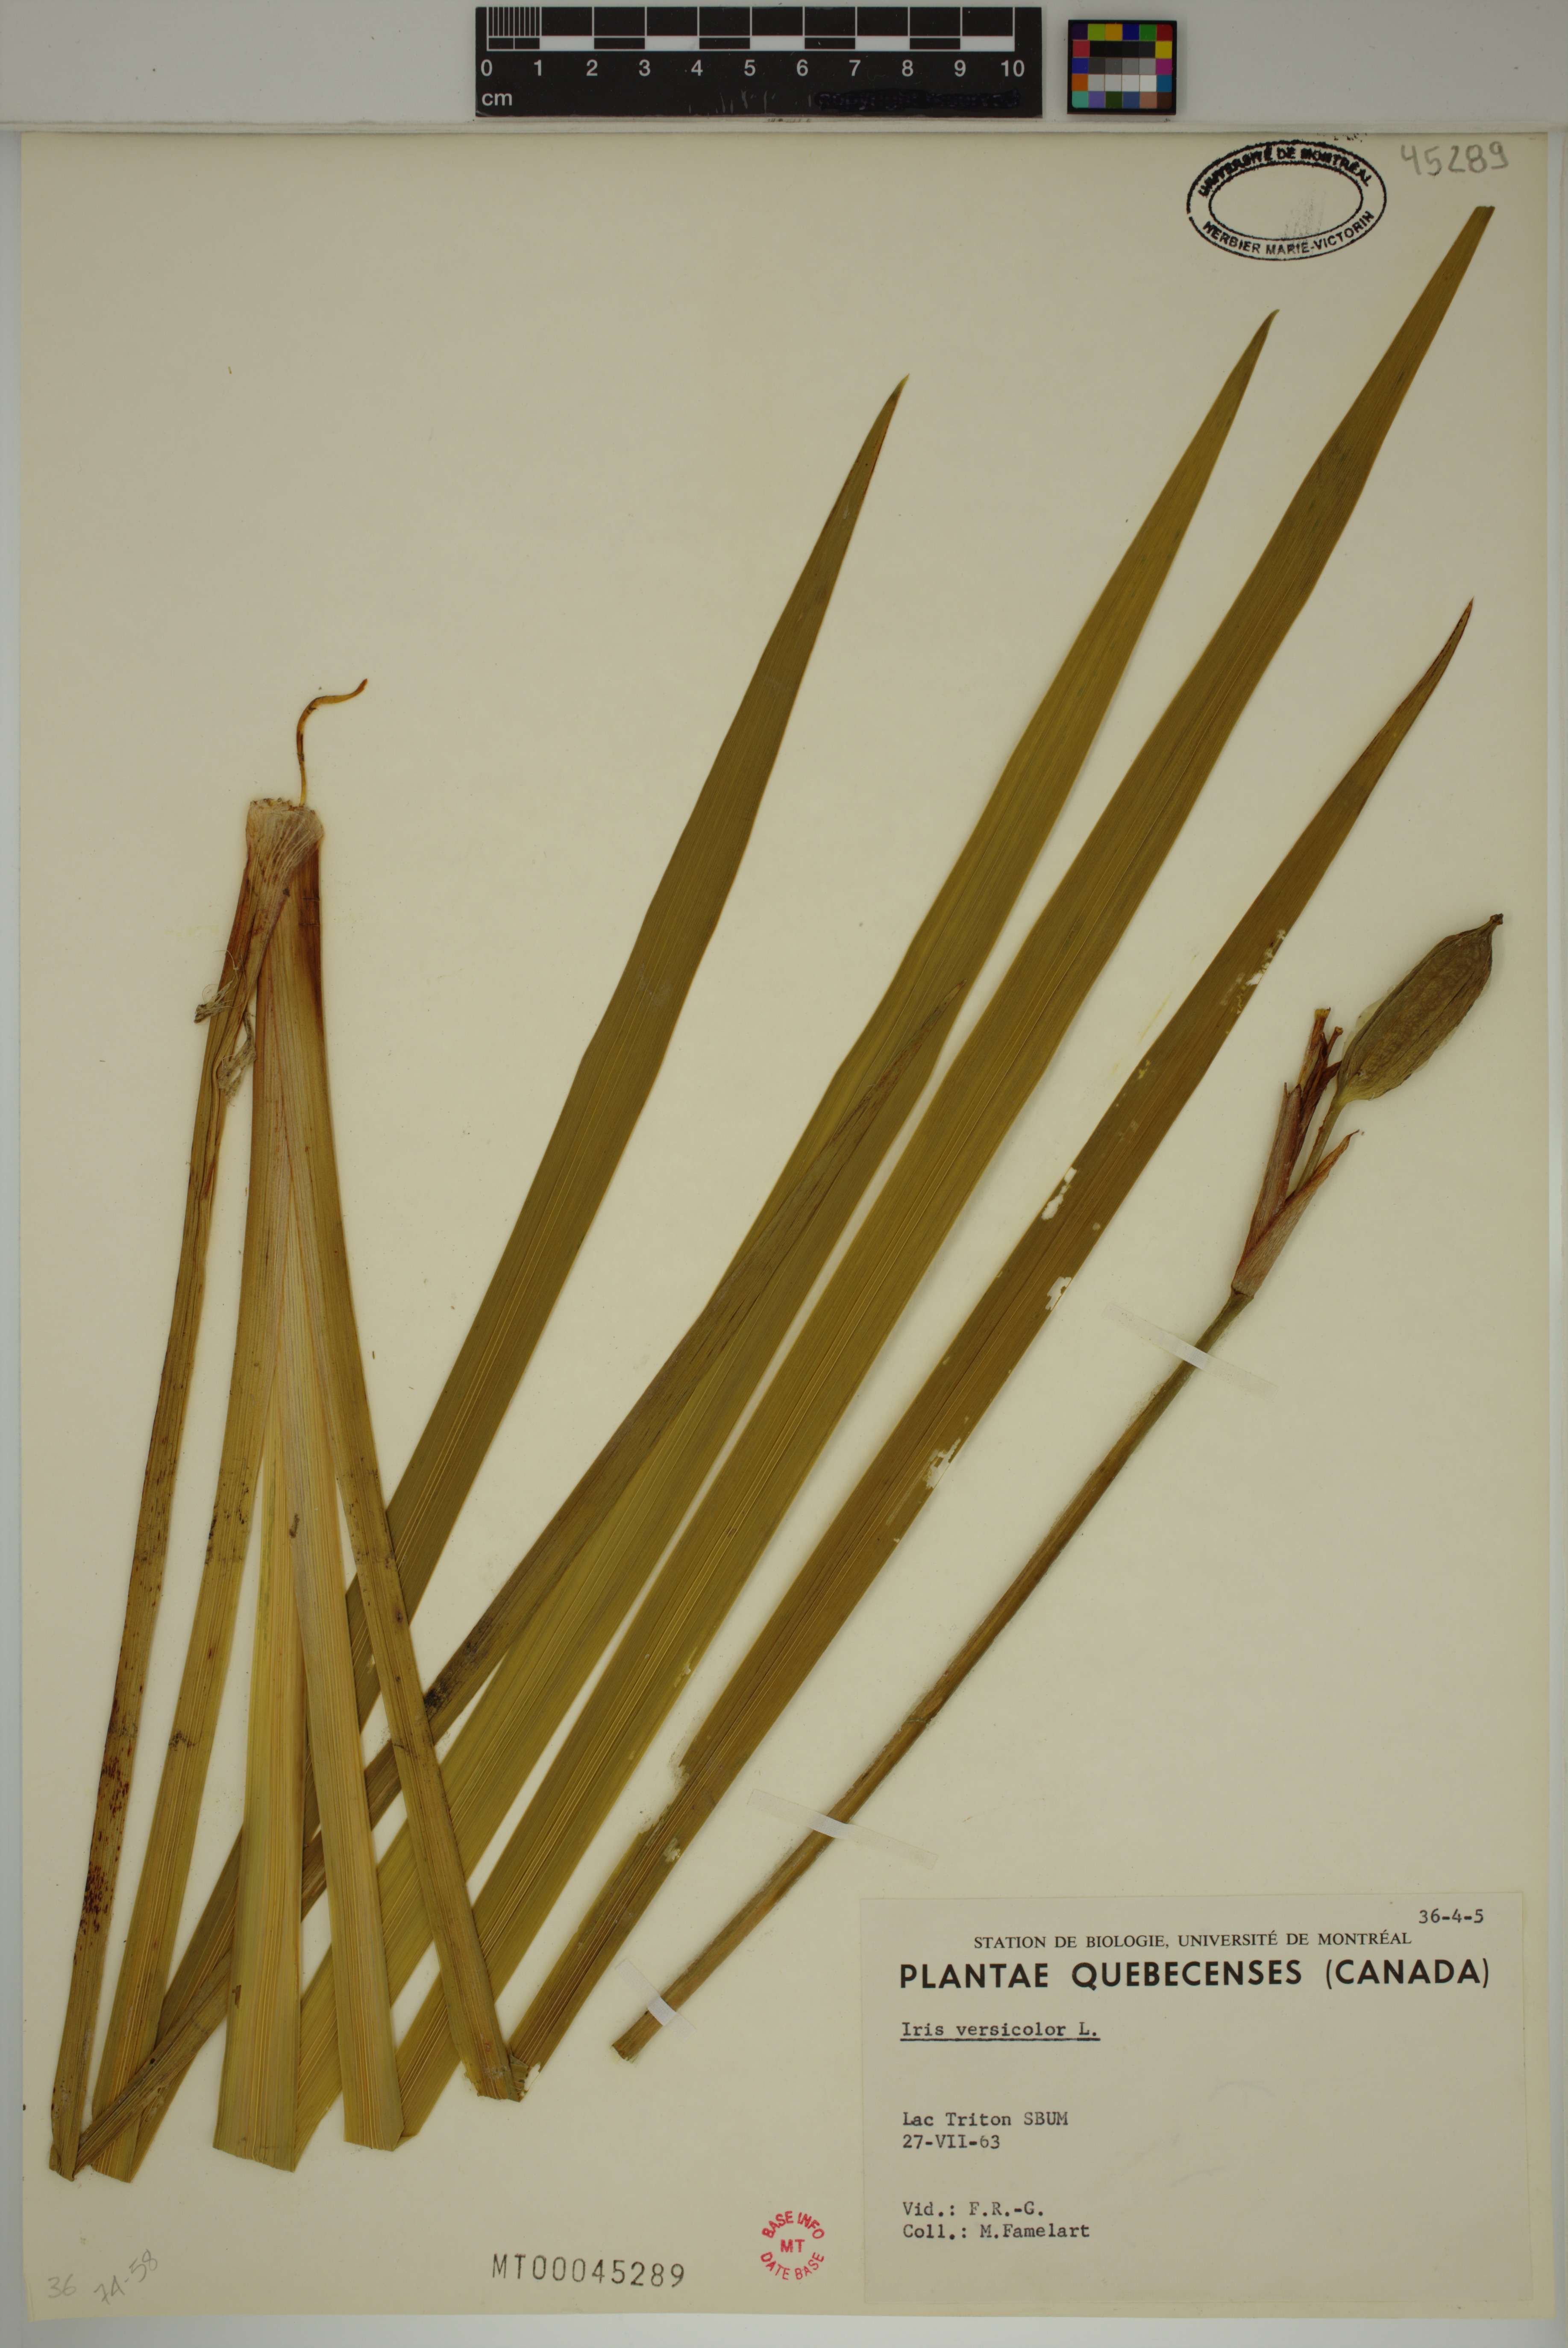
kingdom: Plantae
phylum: Tracheophyta
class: Liliopsida
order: Asparagales
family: Iridaceae
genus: Iris
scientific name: Iris versicolor
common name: Purple iris
